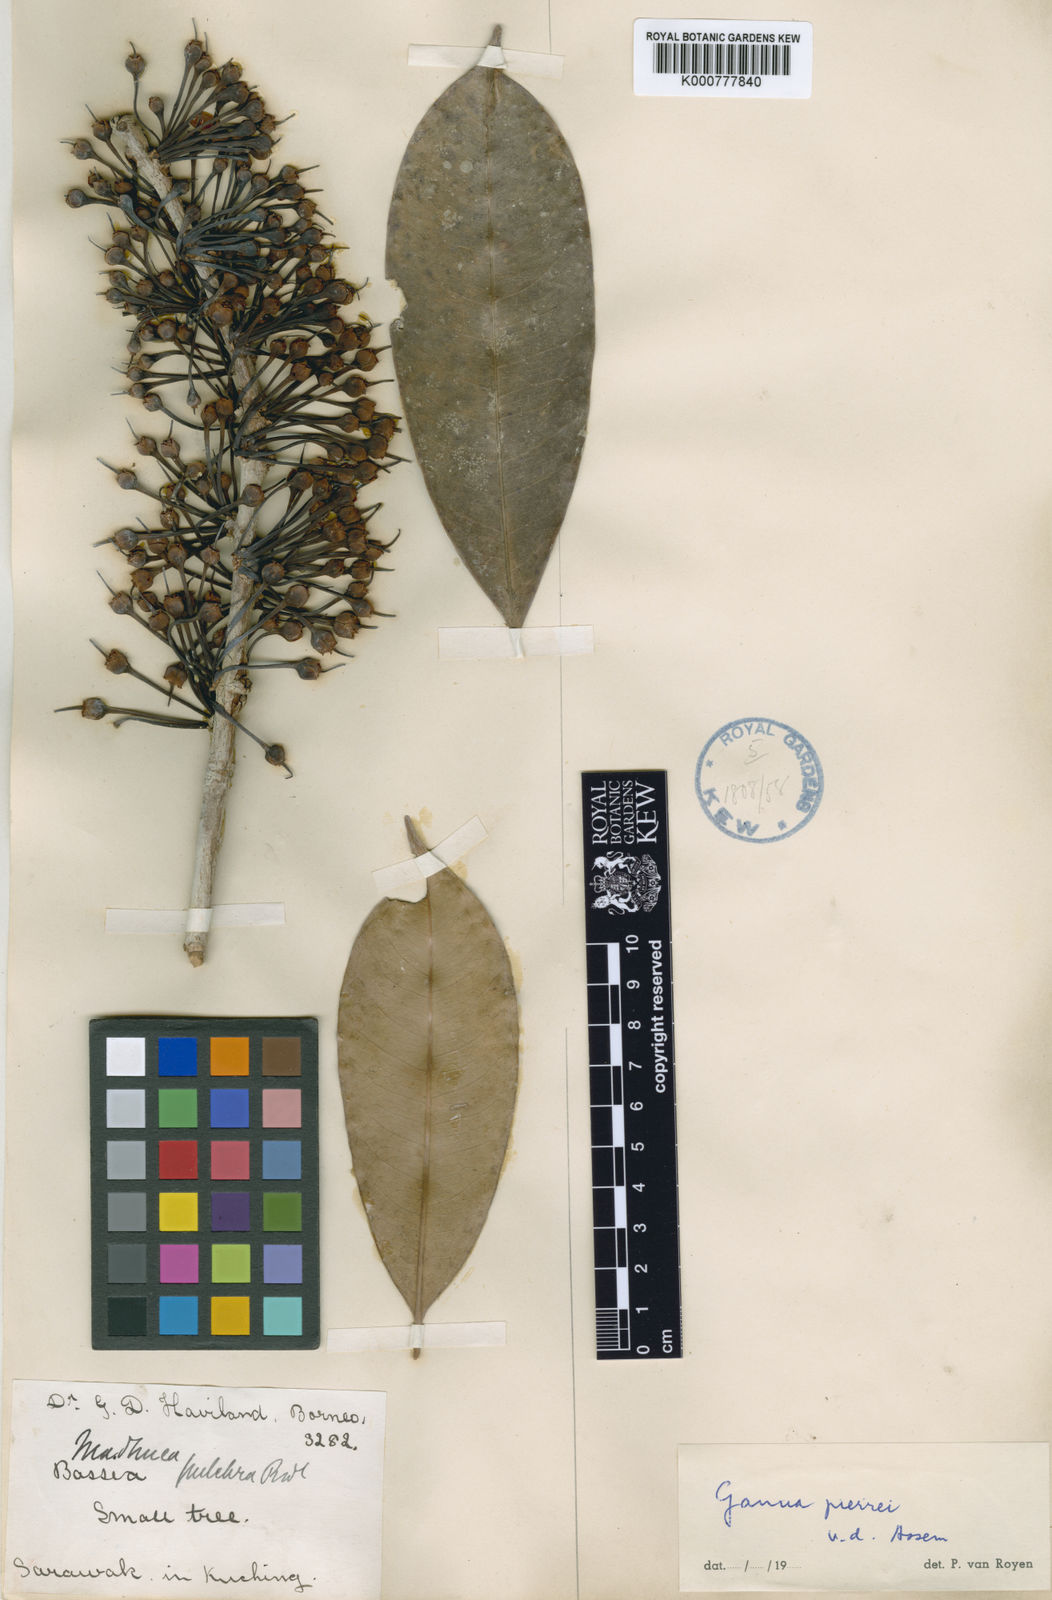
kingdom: Plantae
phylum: Tracheophyta
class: Magnoliopsida
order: Ericales
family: Sapotaceae
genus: Madhuca
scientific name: Madhuca pierrei
